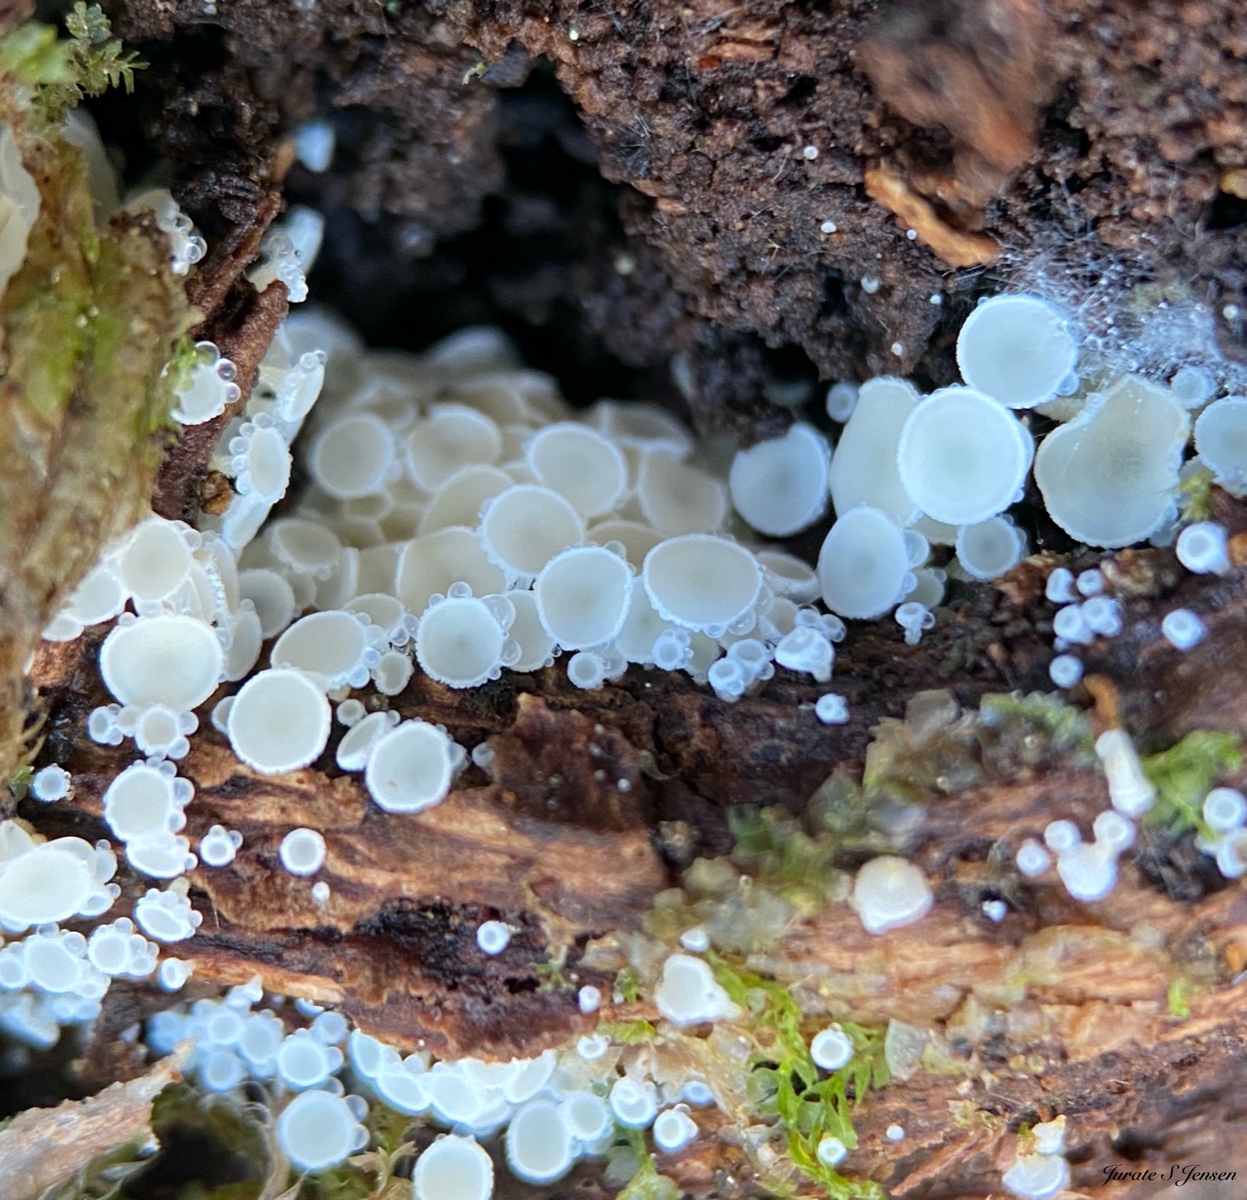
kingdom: Fungi
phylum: Ascomycota
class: Leotiomycetes
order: Helotiales
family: Lachnaceae
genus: Lachnum
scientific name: Lachnum
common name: frynseskive
